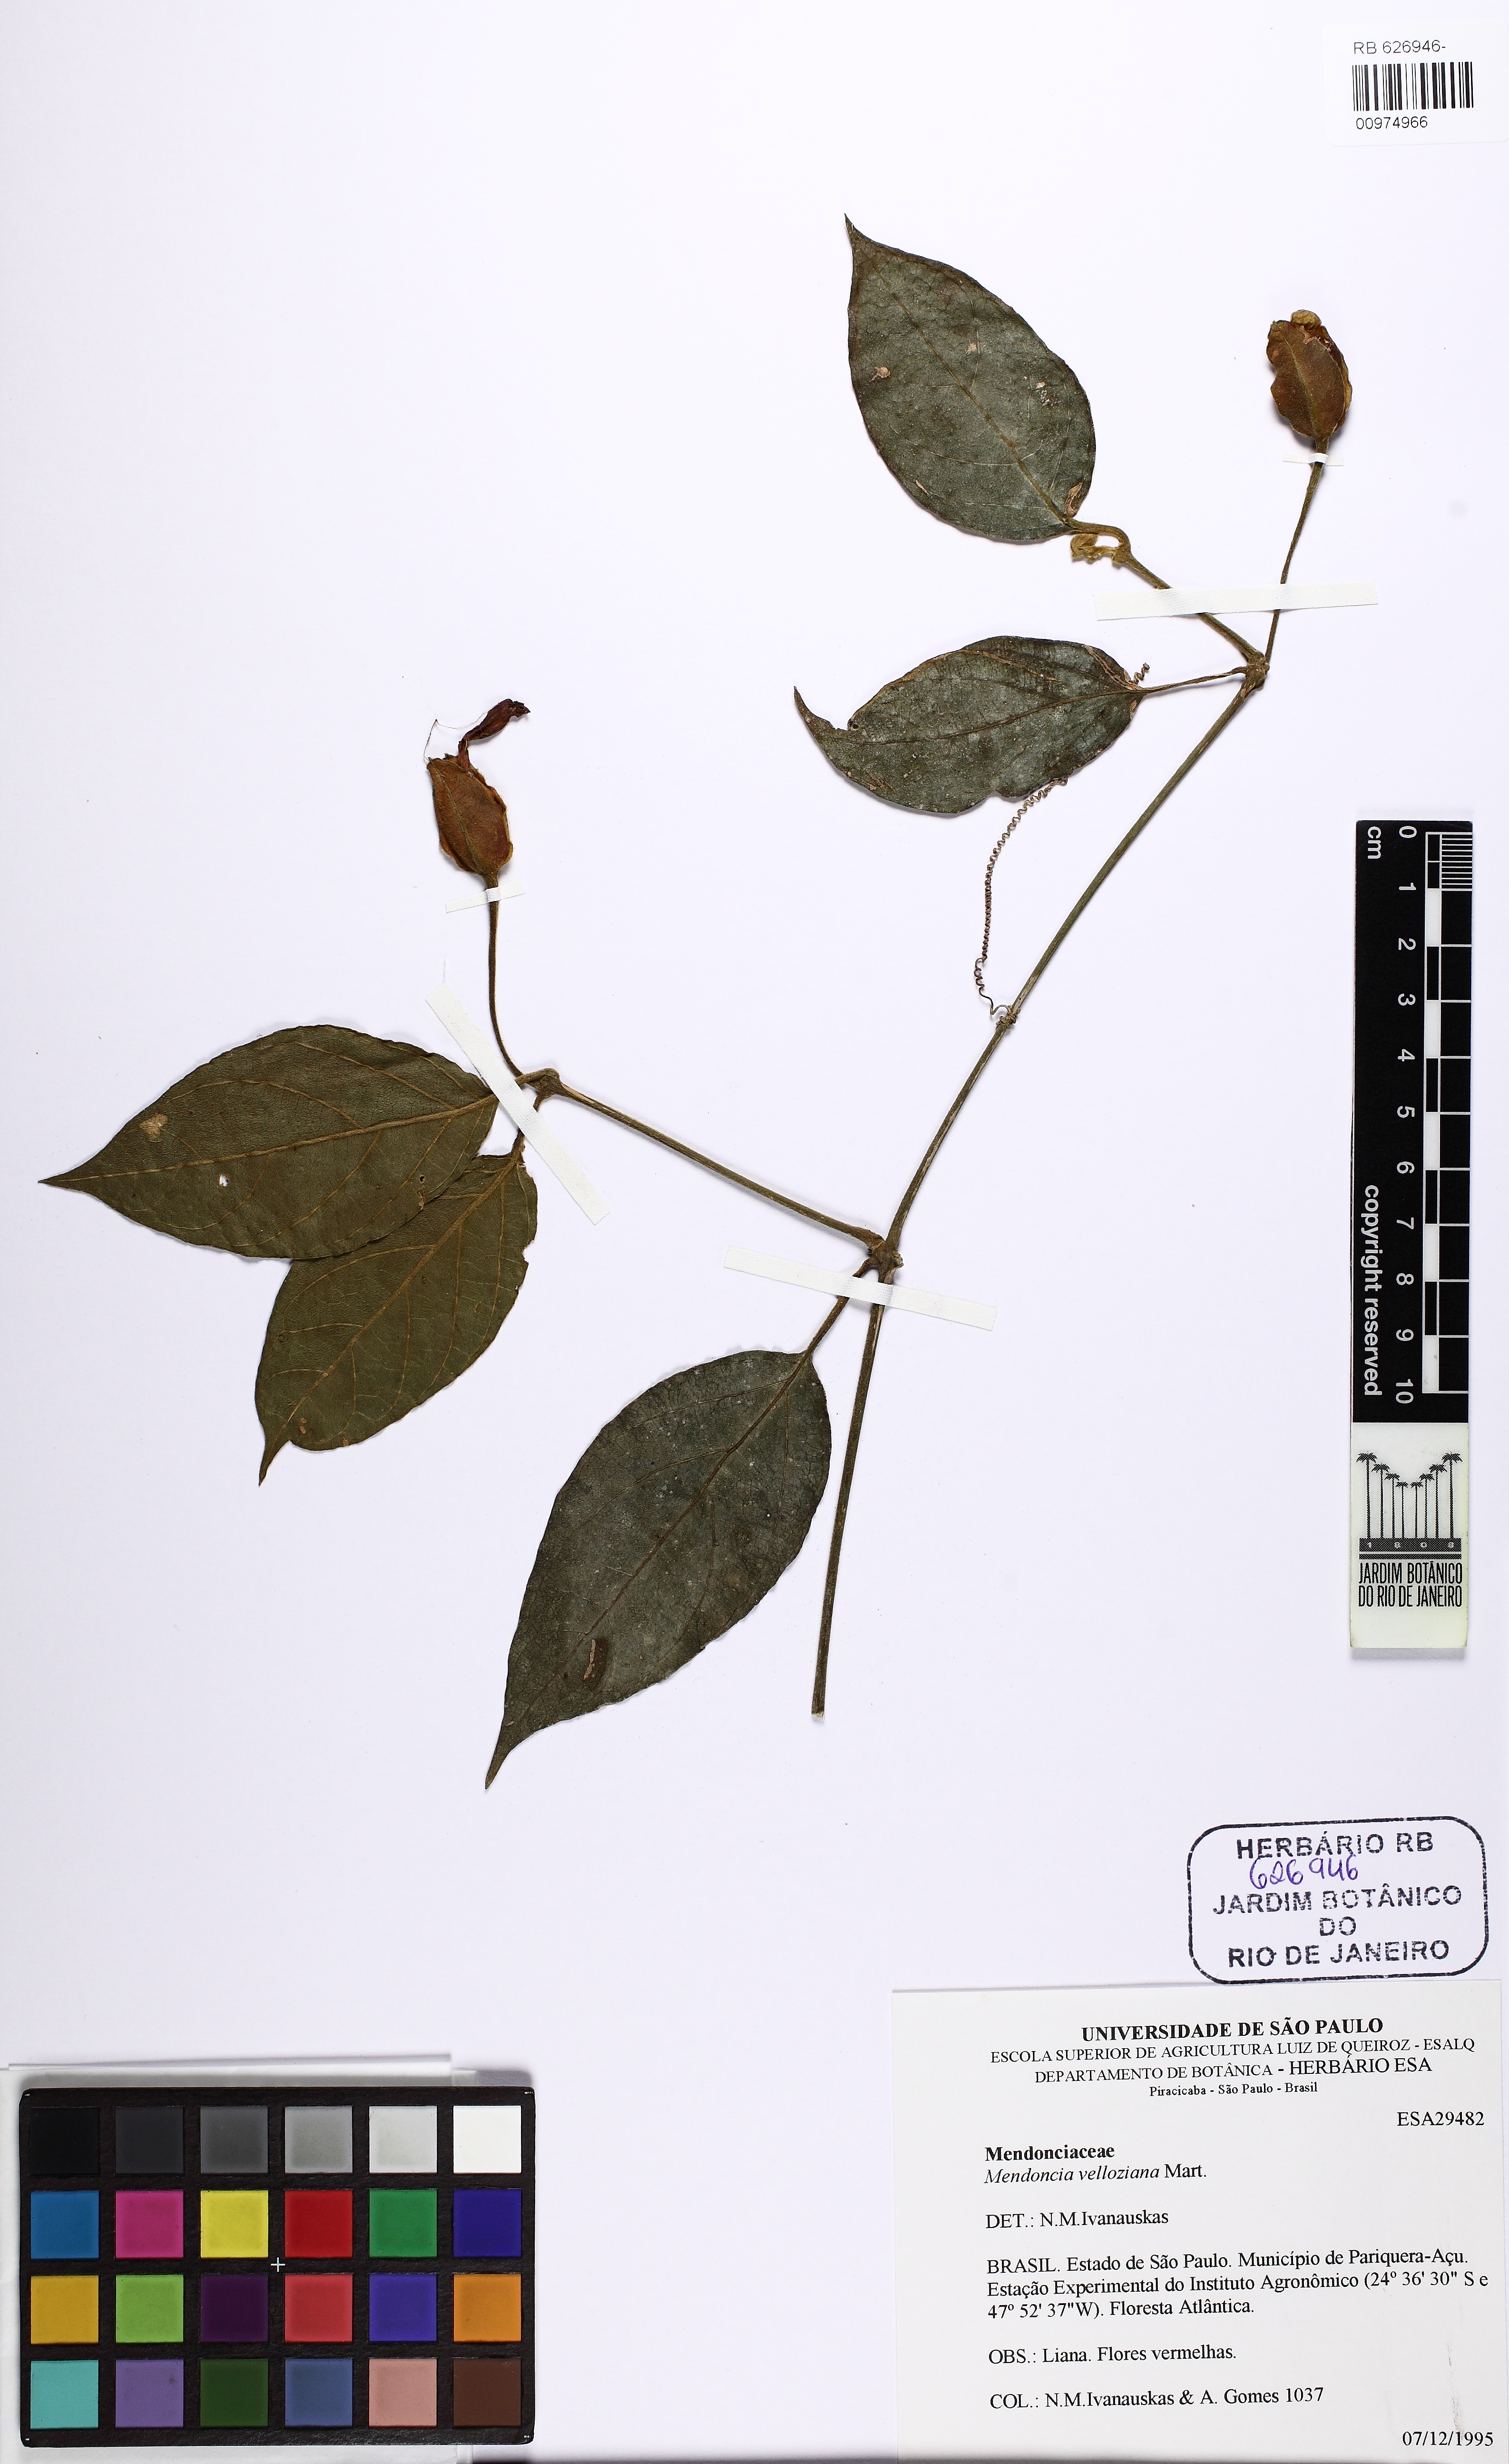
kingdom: Plantae
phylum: Tracheophyta
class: Magnoliopsida
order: Lamiales
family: Acanthaceae
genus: Mendoncia
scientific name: Mendoncia velloziana
